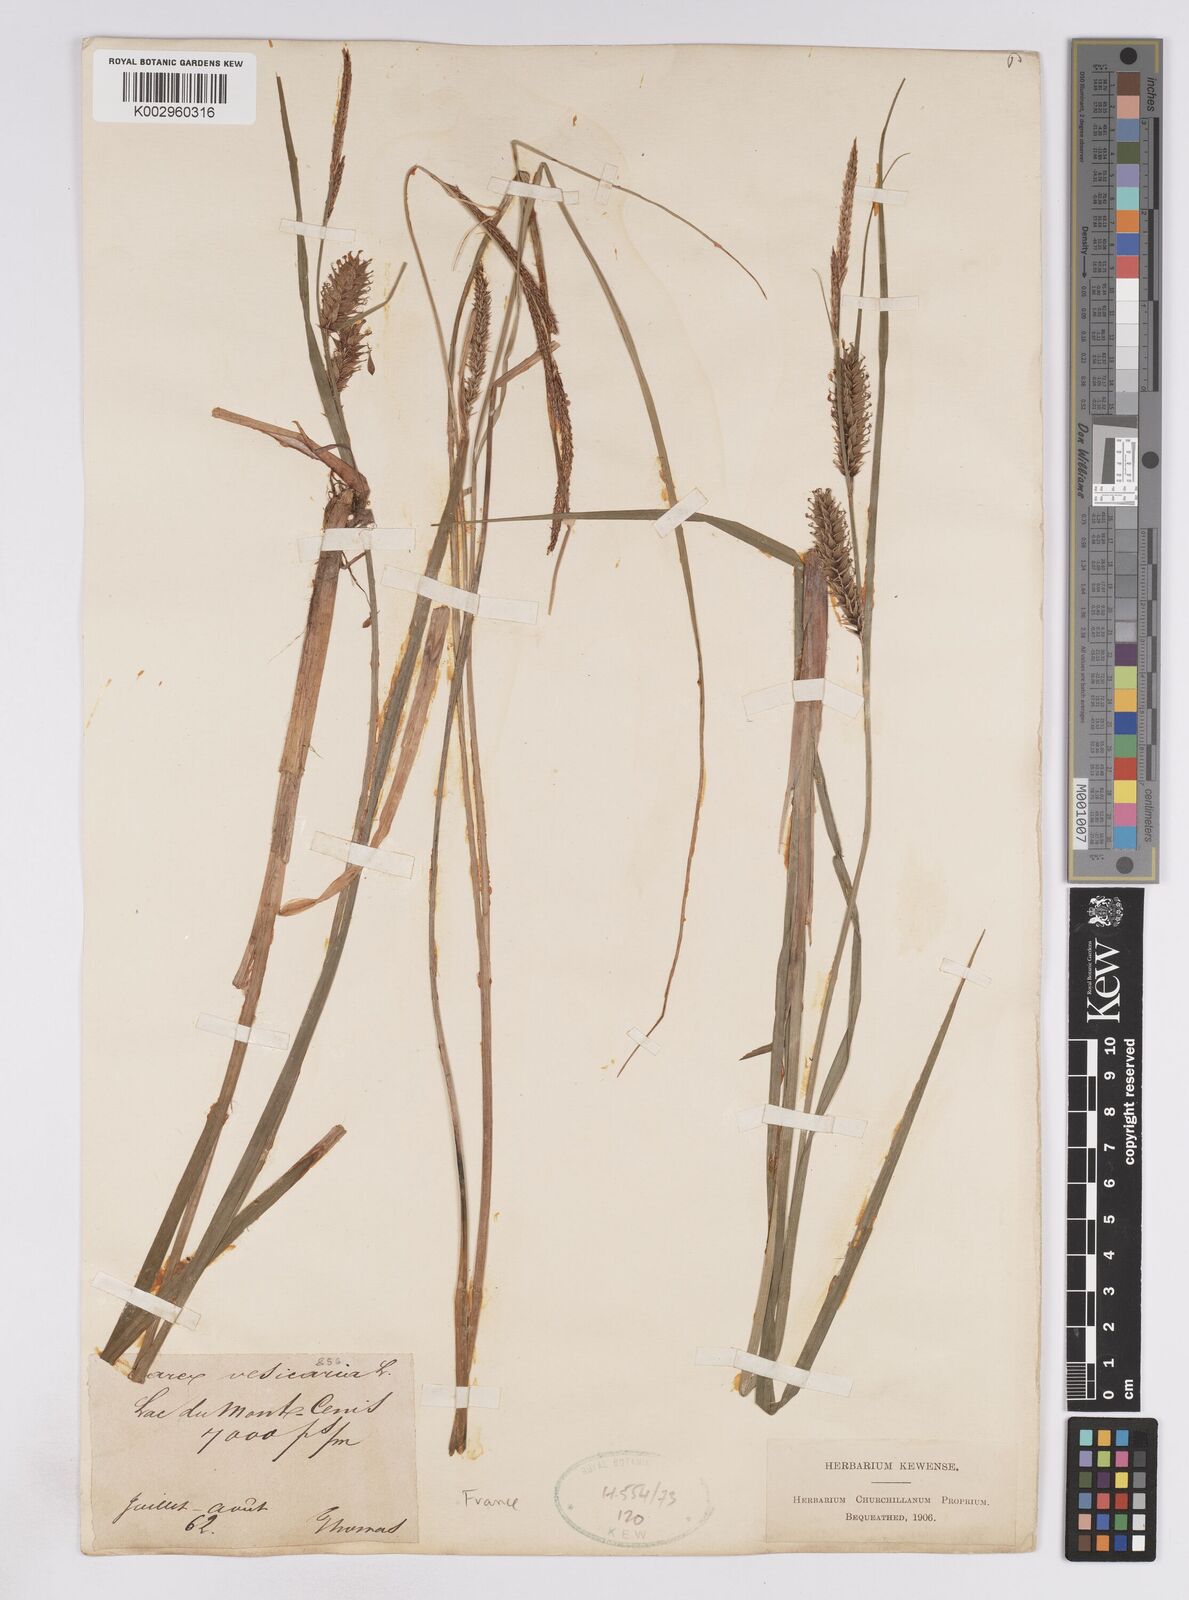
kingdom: Plantae
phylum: Tracheophyta
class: Liliopsida
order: Poales
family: Cyperaceae
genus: Carex
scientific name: Carex vesicaria
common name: Bladder-sedge
